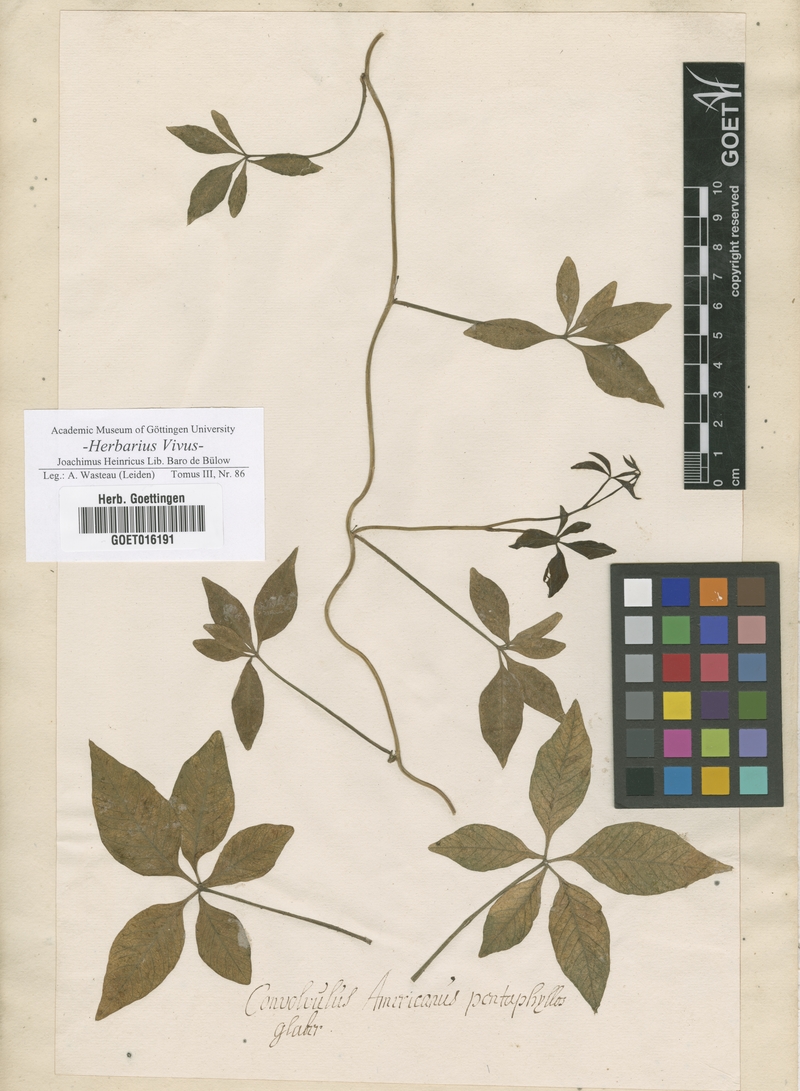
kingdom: Plantae
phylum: Tracheophyta
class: Magnoliopsida
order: Solanales
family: Convolvulaceae
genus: Convolvulus
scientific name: Convolvulus
